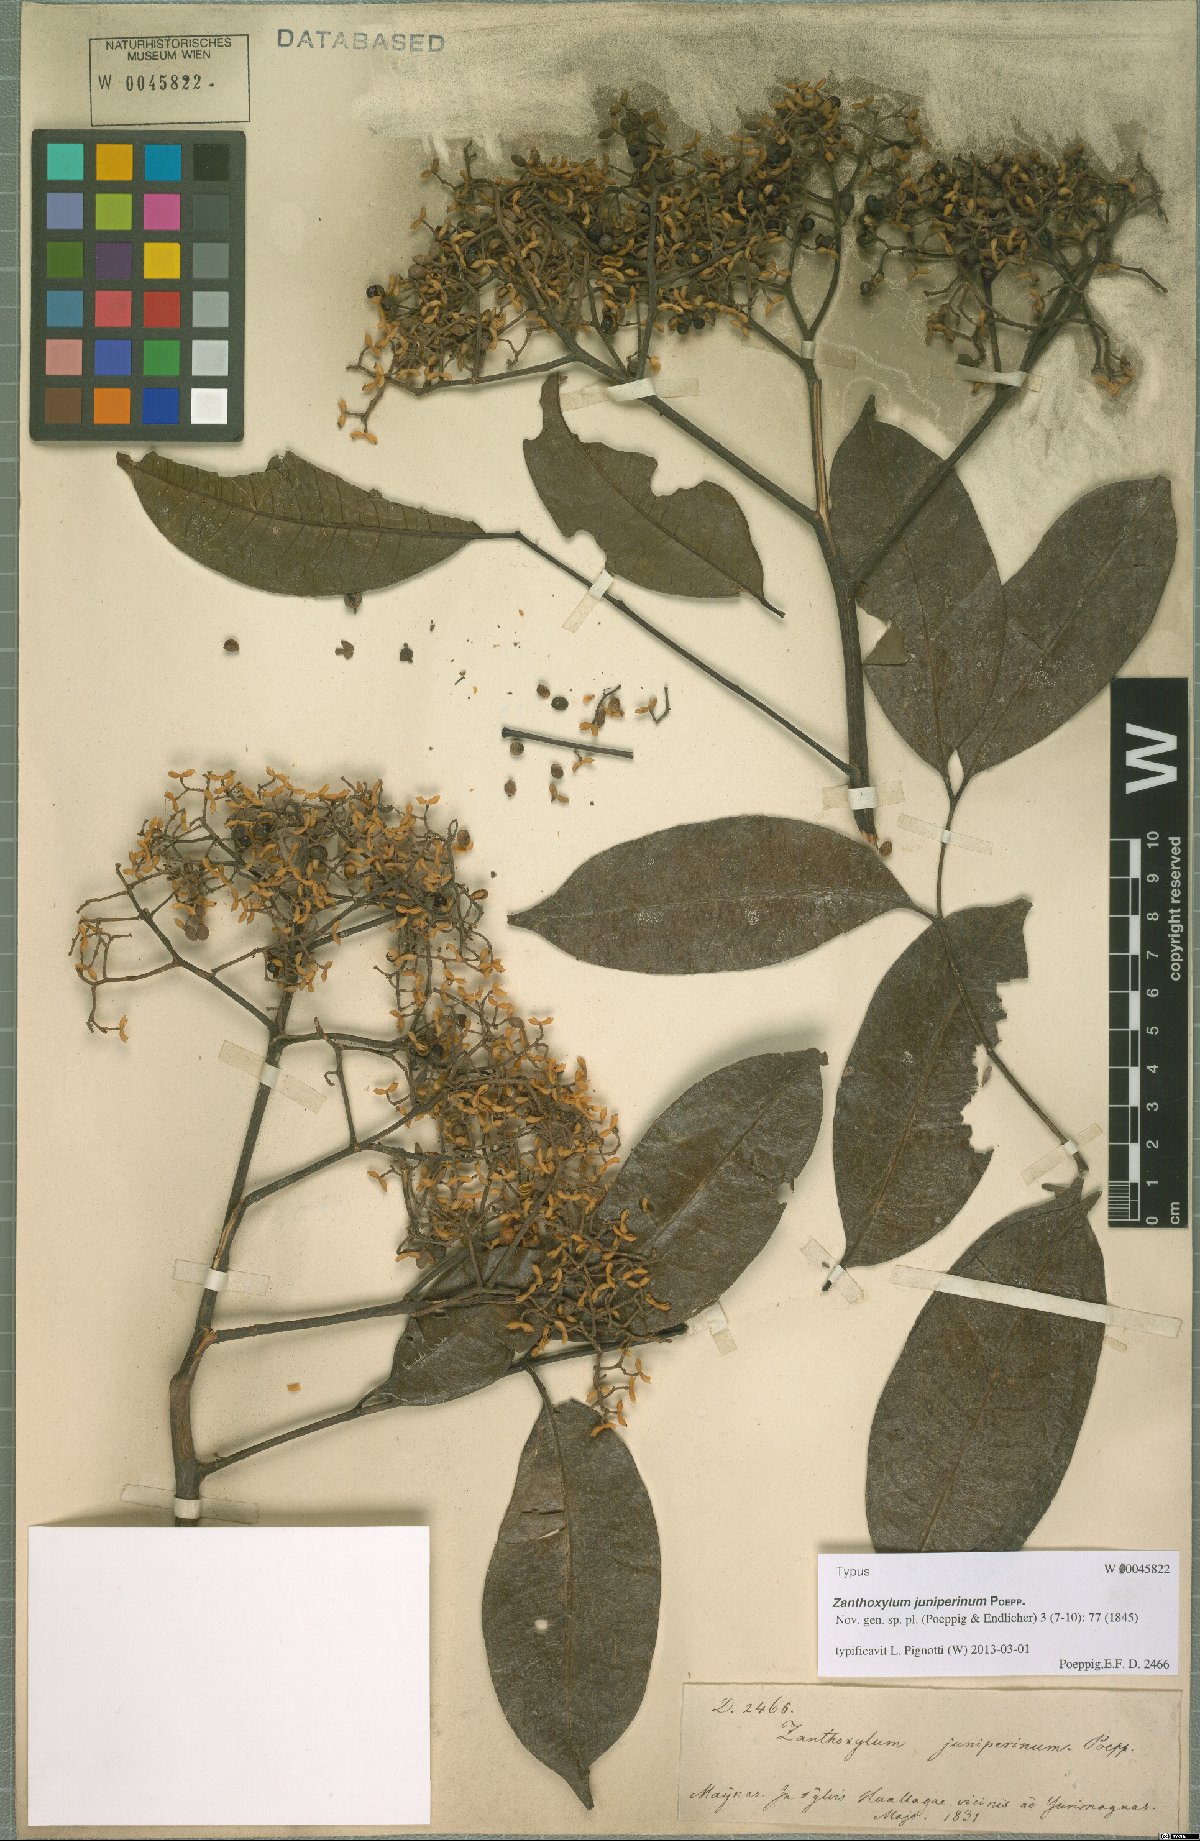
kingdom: Plantae
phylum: Tracheophyta
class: Magnoliopsida
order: Sapindales
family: Rutaceae
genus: Zanthoxylum
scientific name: Zanthoxylum acuminatum
